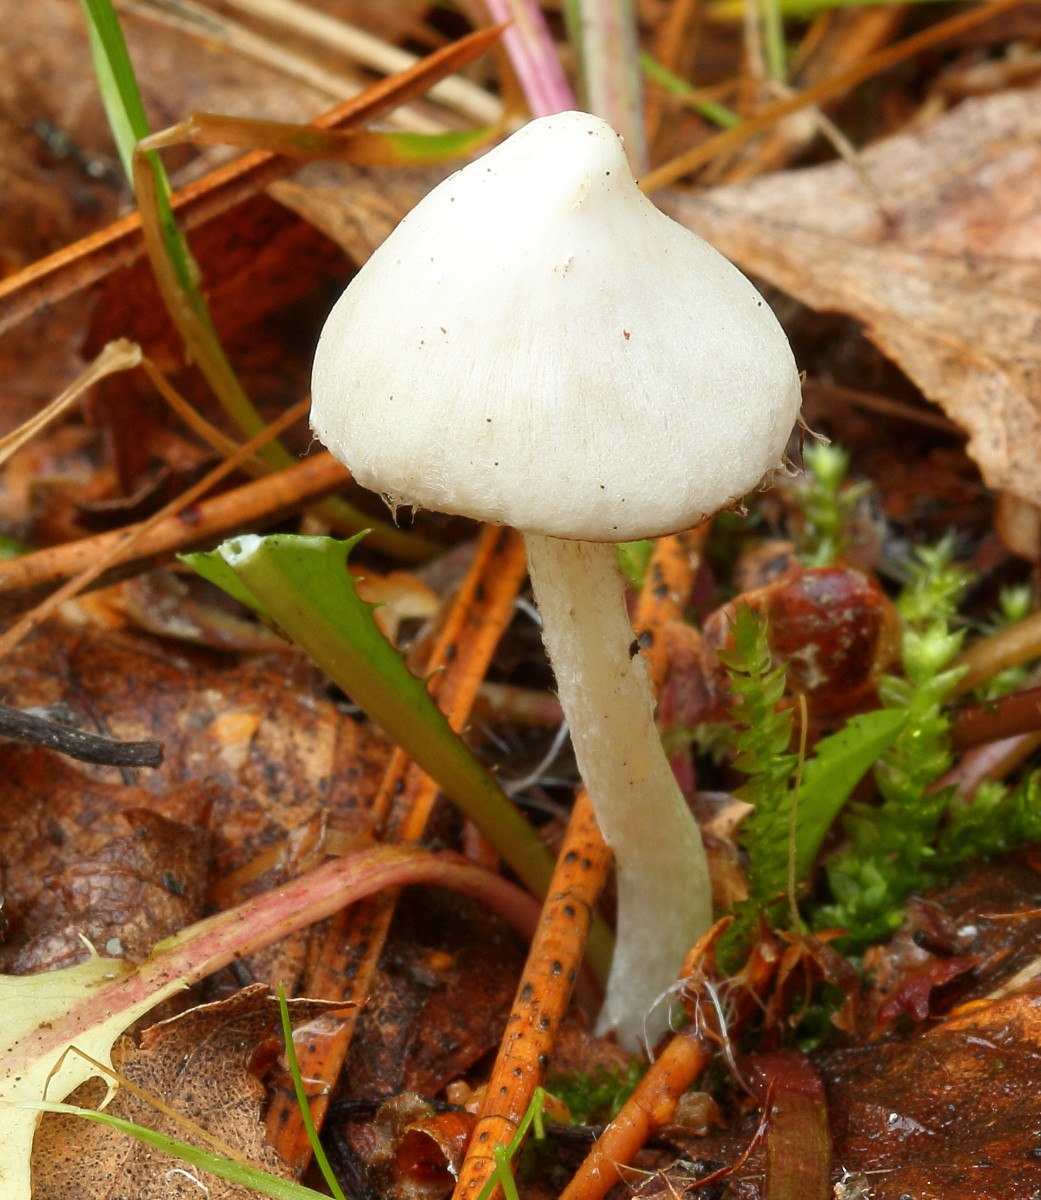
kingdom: Fungi
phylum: Basidiomycota
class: Agaricomycetes
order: Agaricales
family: Inocybaceae
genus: Inocybe
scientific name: Inocybe
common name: almindelig trævlhat
